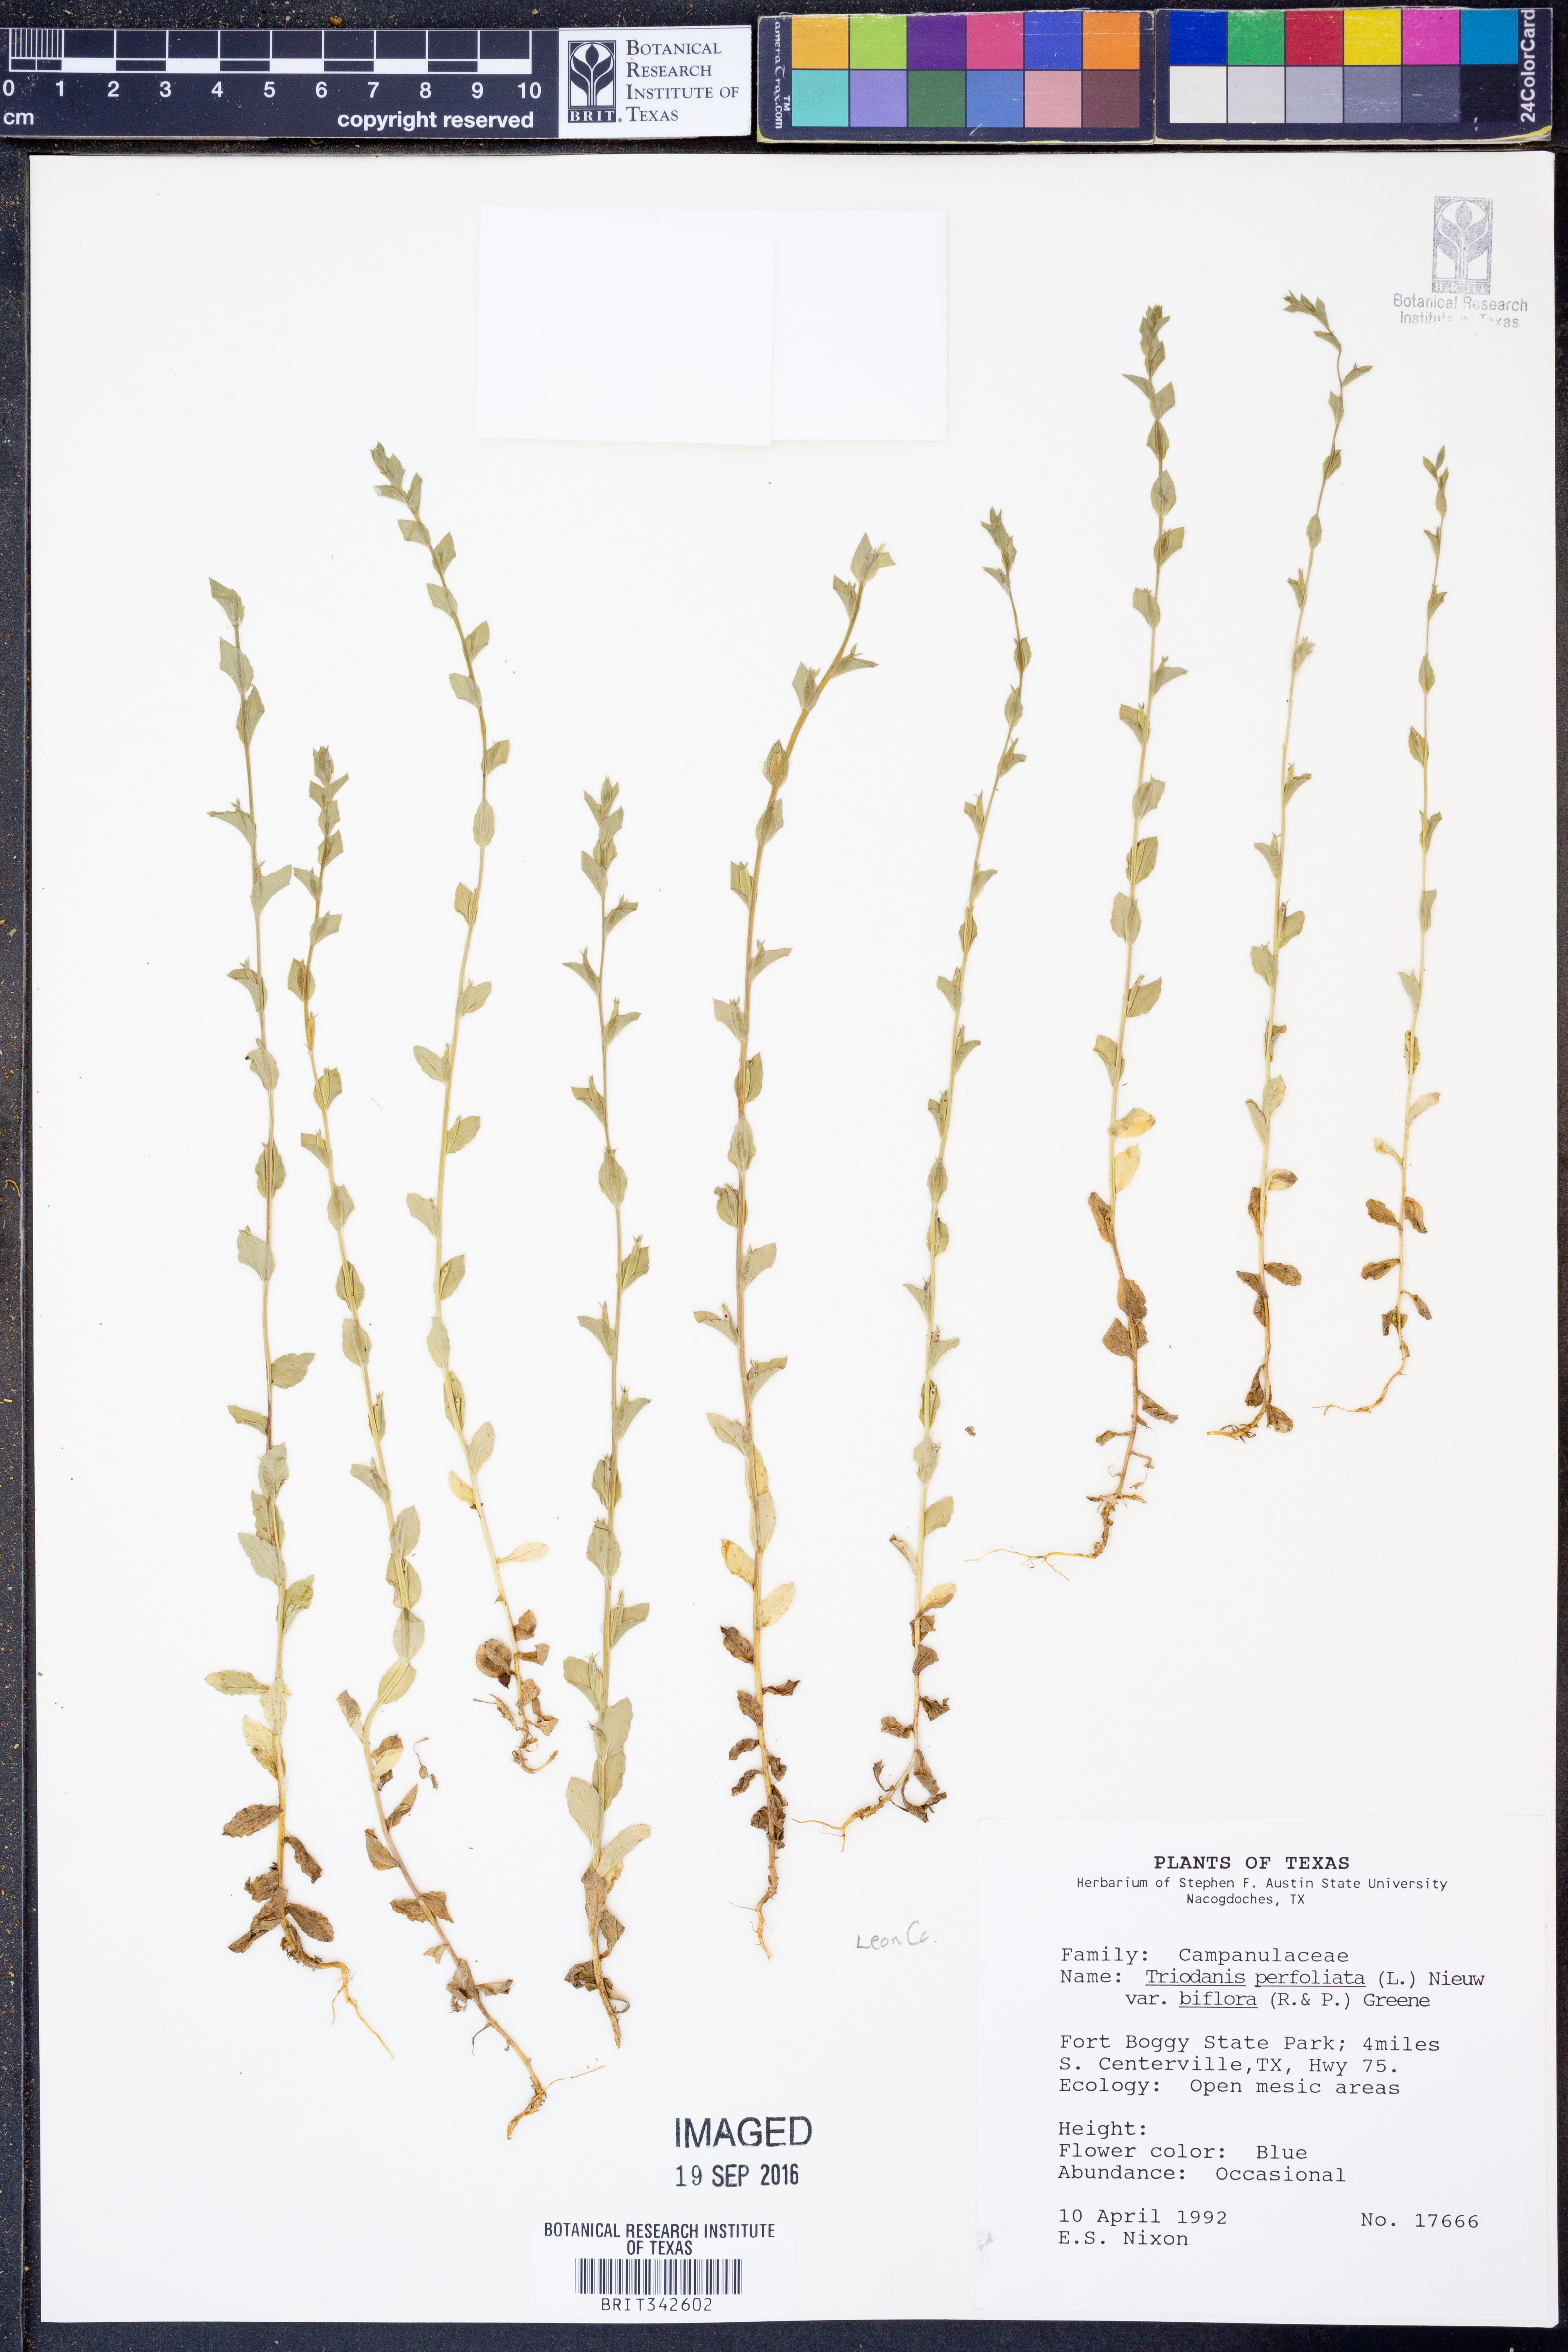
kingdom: Plantae
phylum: Tracheophyta
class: Magnoliopsida
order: Asterales
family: Campanulaceae
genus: Triodanis
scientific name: Triodanis perfoliata
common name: Clasping venus' looking-glass
